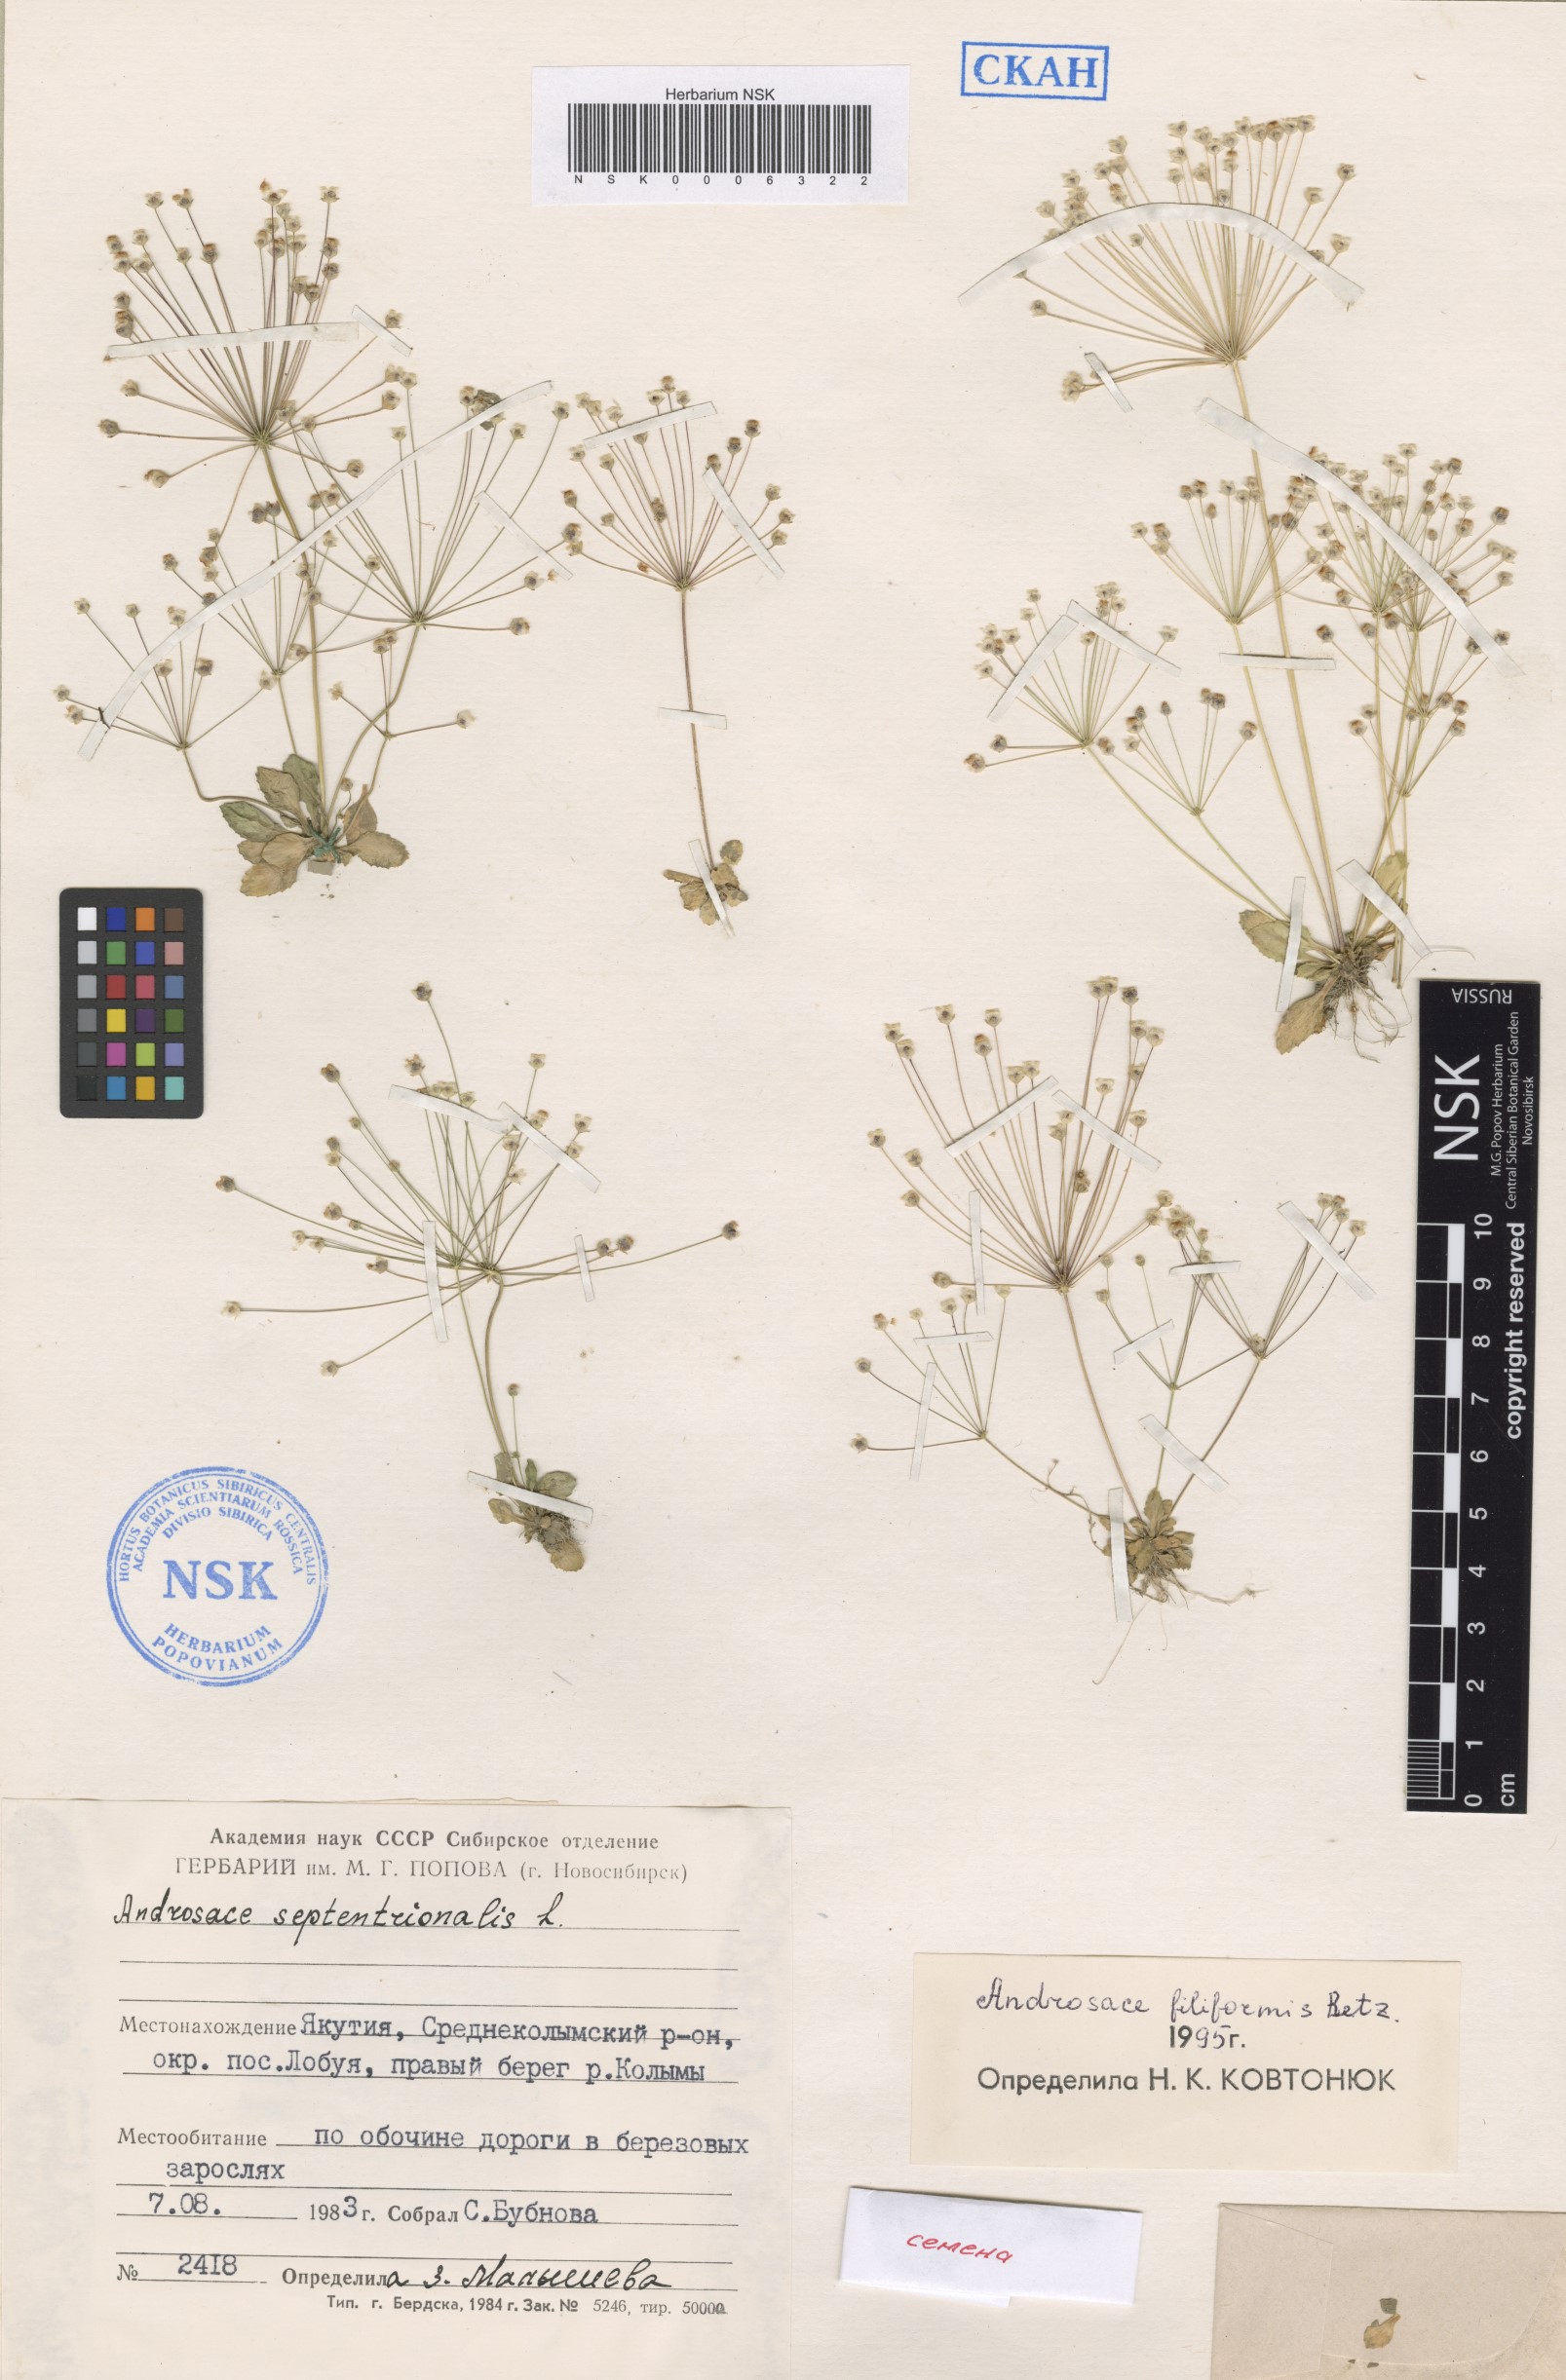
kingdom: Plantae
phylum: Tracheophyta
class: Magnoliopsida
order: Ericales
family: Primulaceae
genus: Androsace
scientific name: Androsace filiformis
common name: Filiform rock jasmine
